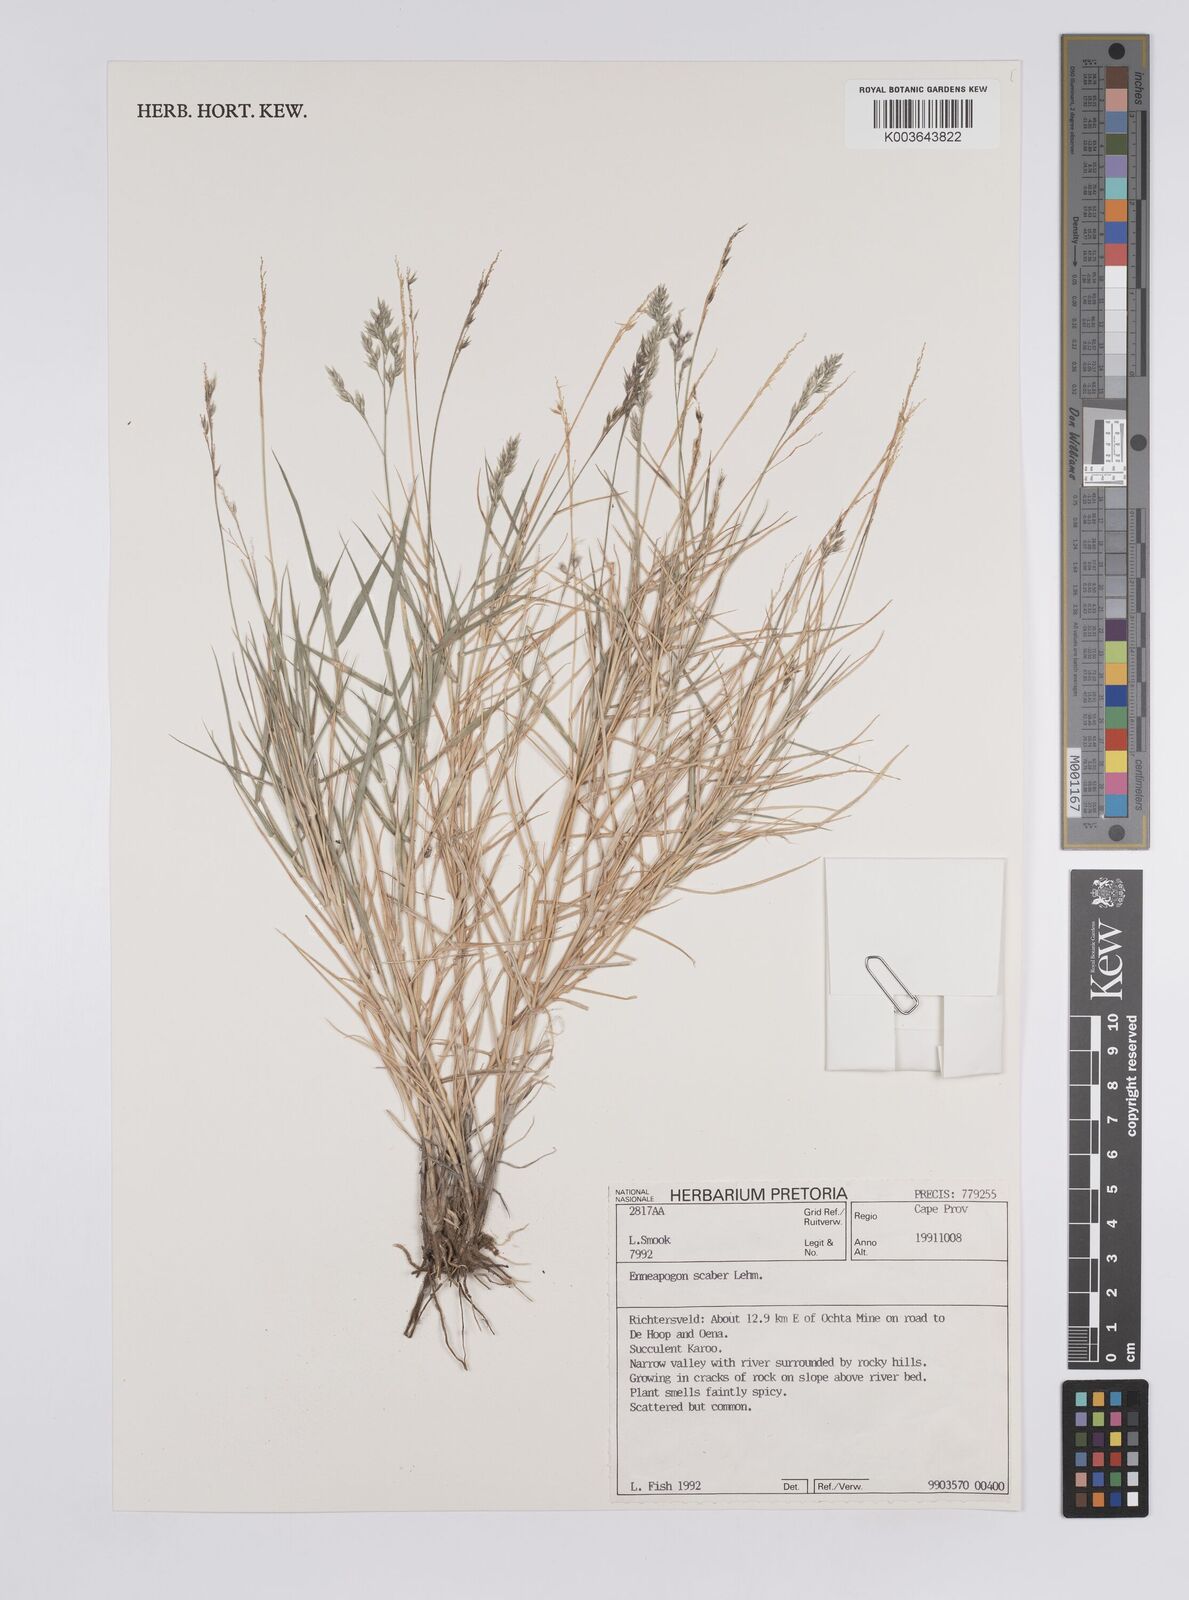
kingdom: Plantae
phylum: Tracheophyta
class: Liliopsida
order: Poales
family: Poaceae
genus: Enneapogon
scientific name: Enneapogon scaber
